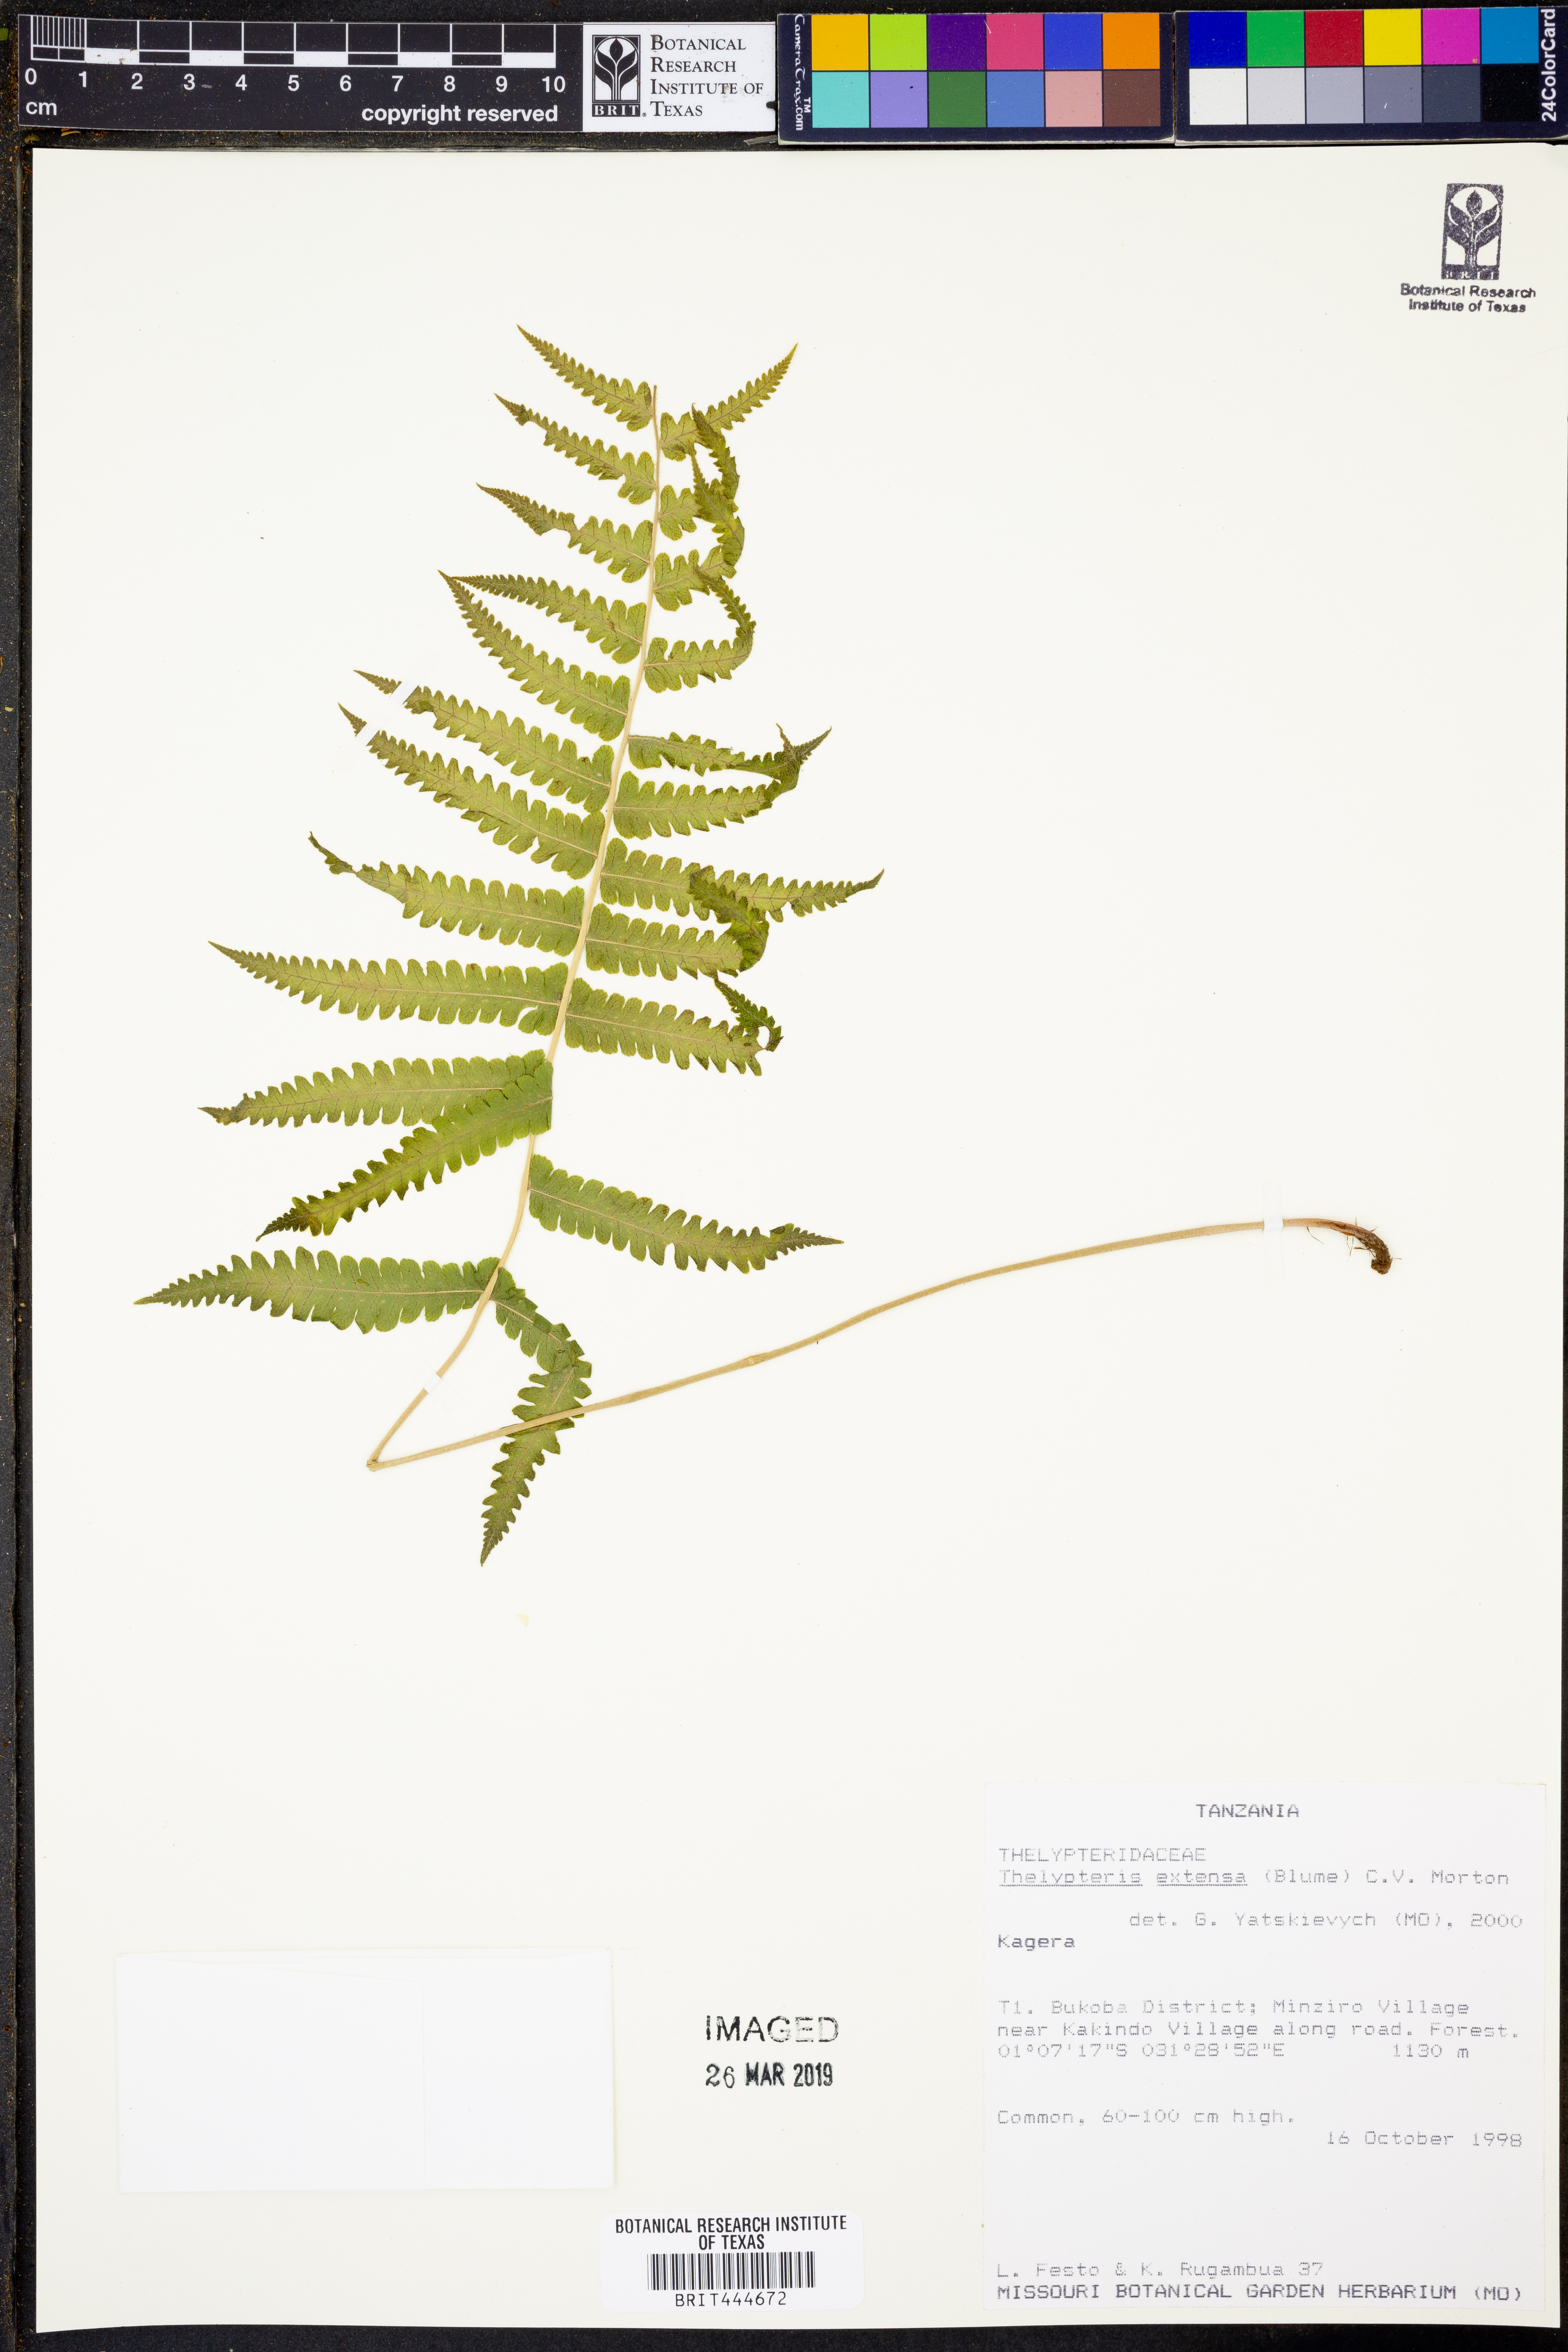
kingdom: Plantae
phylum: Tracheophyta
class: Polypodiopsida
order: Polypodiales
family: Thelypteridaceae
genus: Amblovenatum
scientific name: Amblovenatum opulentum
